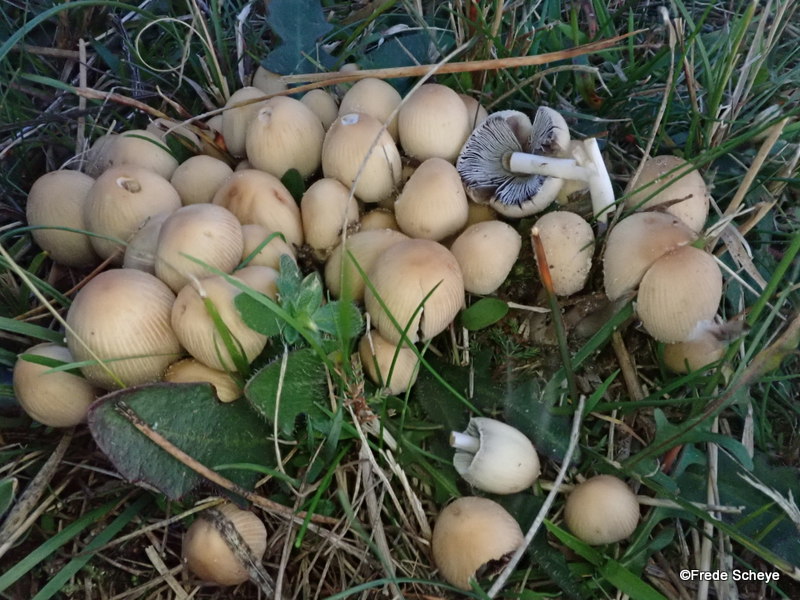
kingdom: Fungi
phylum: Basidiomycota
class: Agaricomycetes
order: Agaricales
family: Psathyrellaceae
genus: Coprinellus
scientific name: Coprinellus micaceus
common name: glimmer-blækhat
